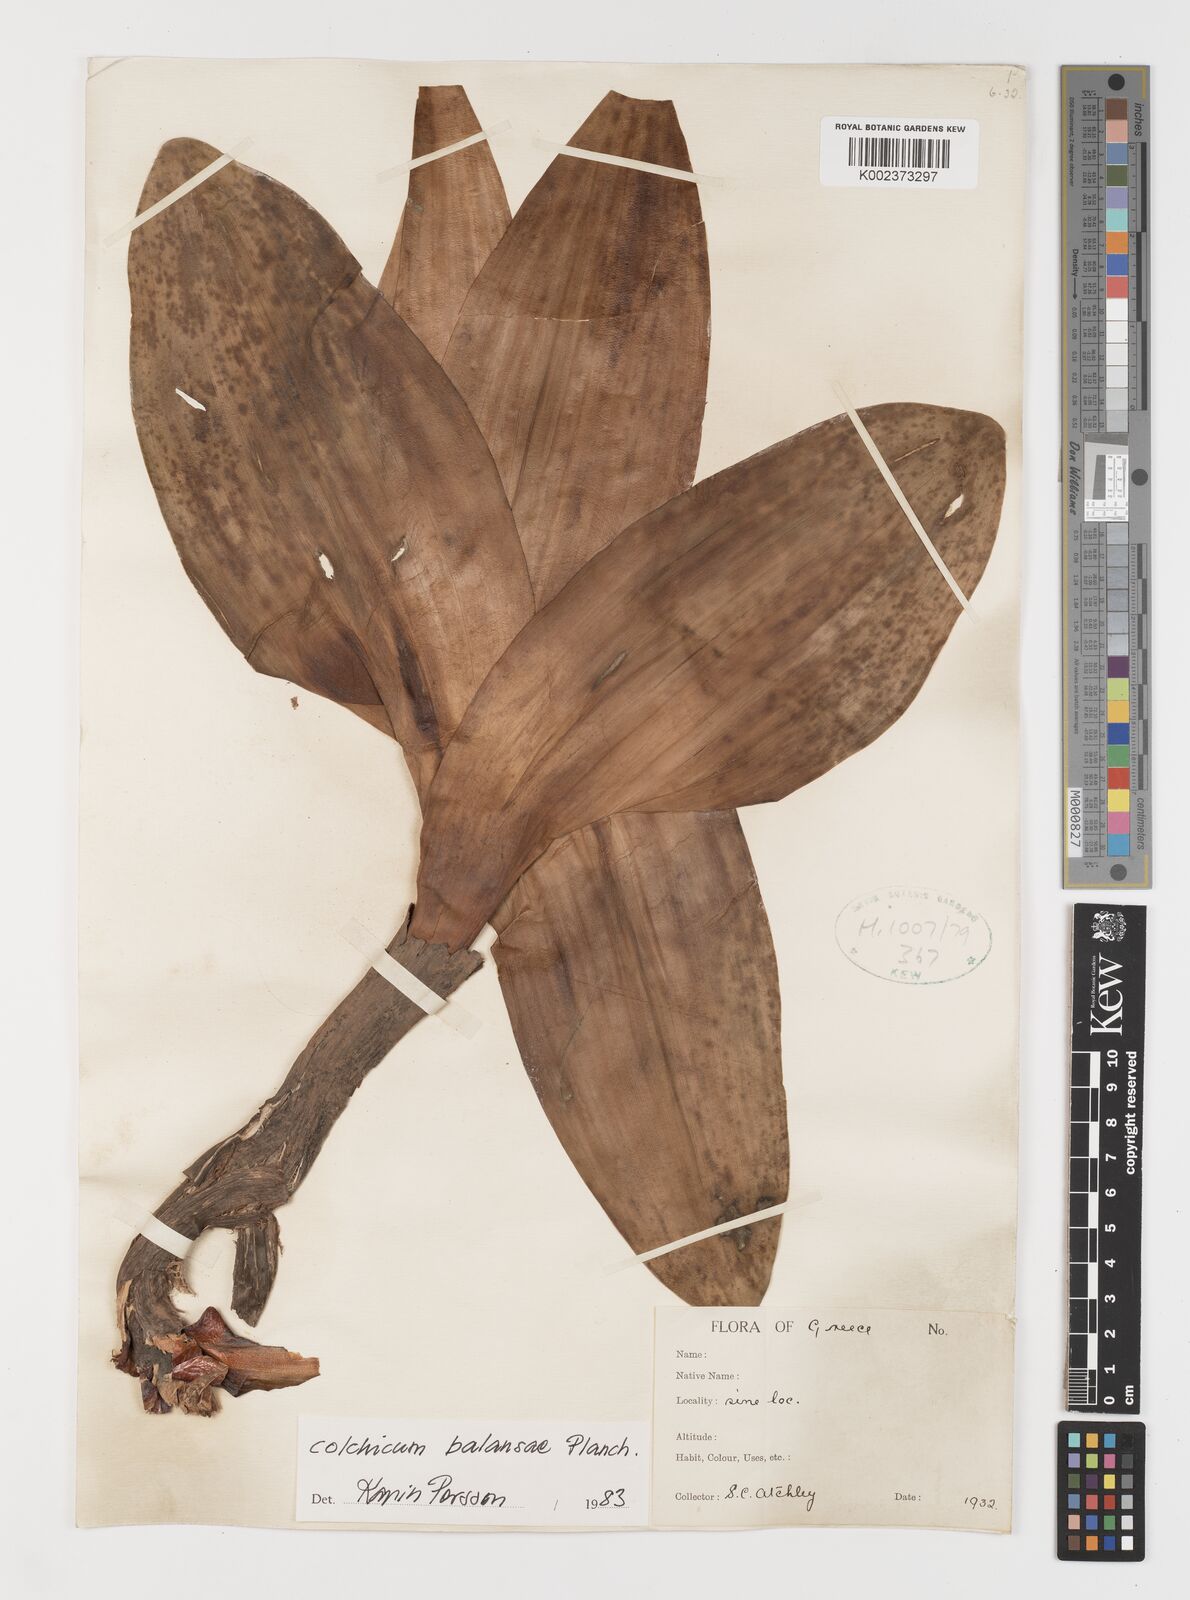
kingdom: Plantae
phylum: Tracheophyta
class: Liliopsida
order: Liliales
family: Colchicaceae
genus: Colchicum
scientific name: Colchicum balansae
